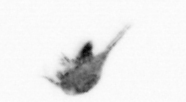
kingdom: Animalia
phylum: Arthropoda
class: Copepoda
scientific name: Copepoda
